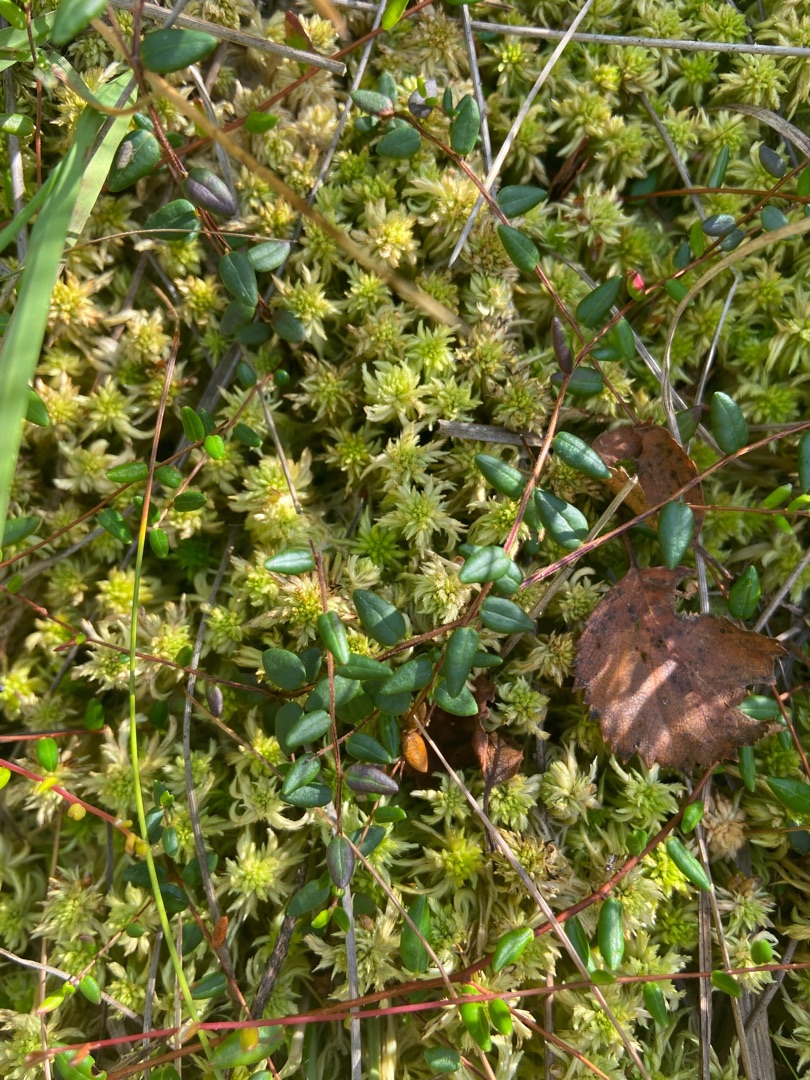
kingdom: Plantae
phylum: Tracheophyta
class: Magnoliopsida
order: Ericales
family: Ericaceae
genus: Vaccinium
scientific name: Vaccinium oxycoccos
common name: Tranebær
